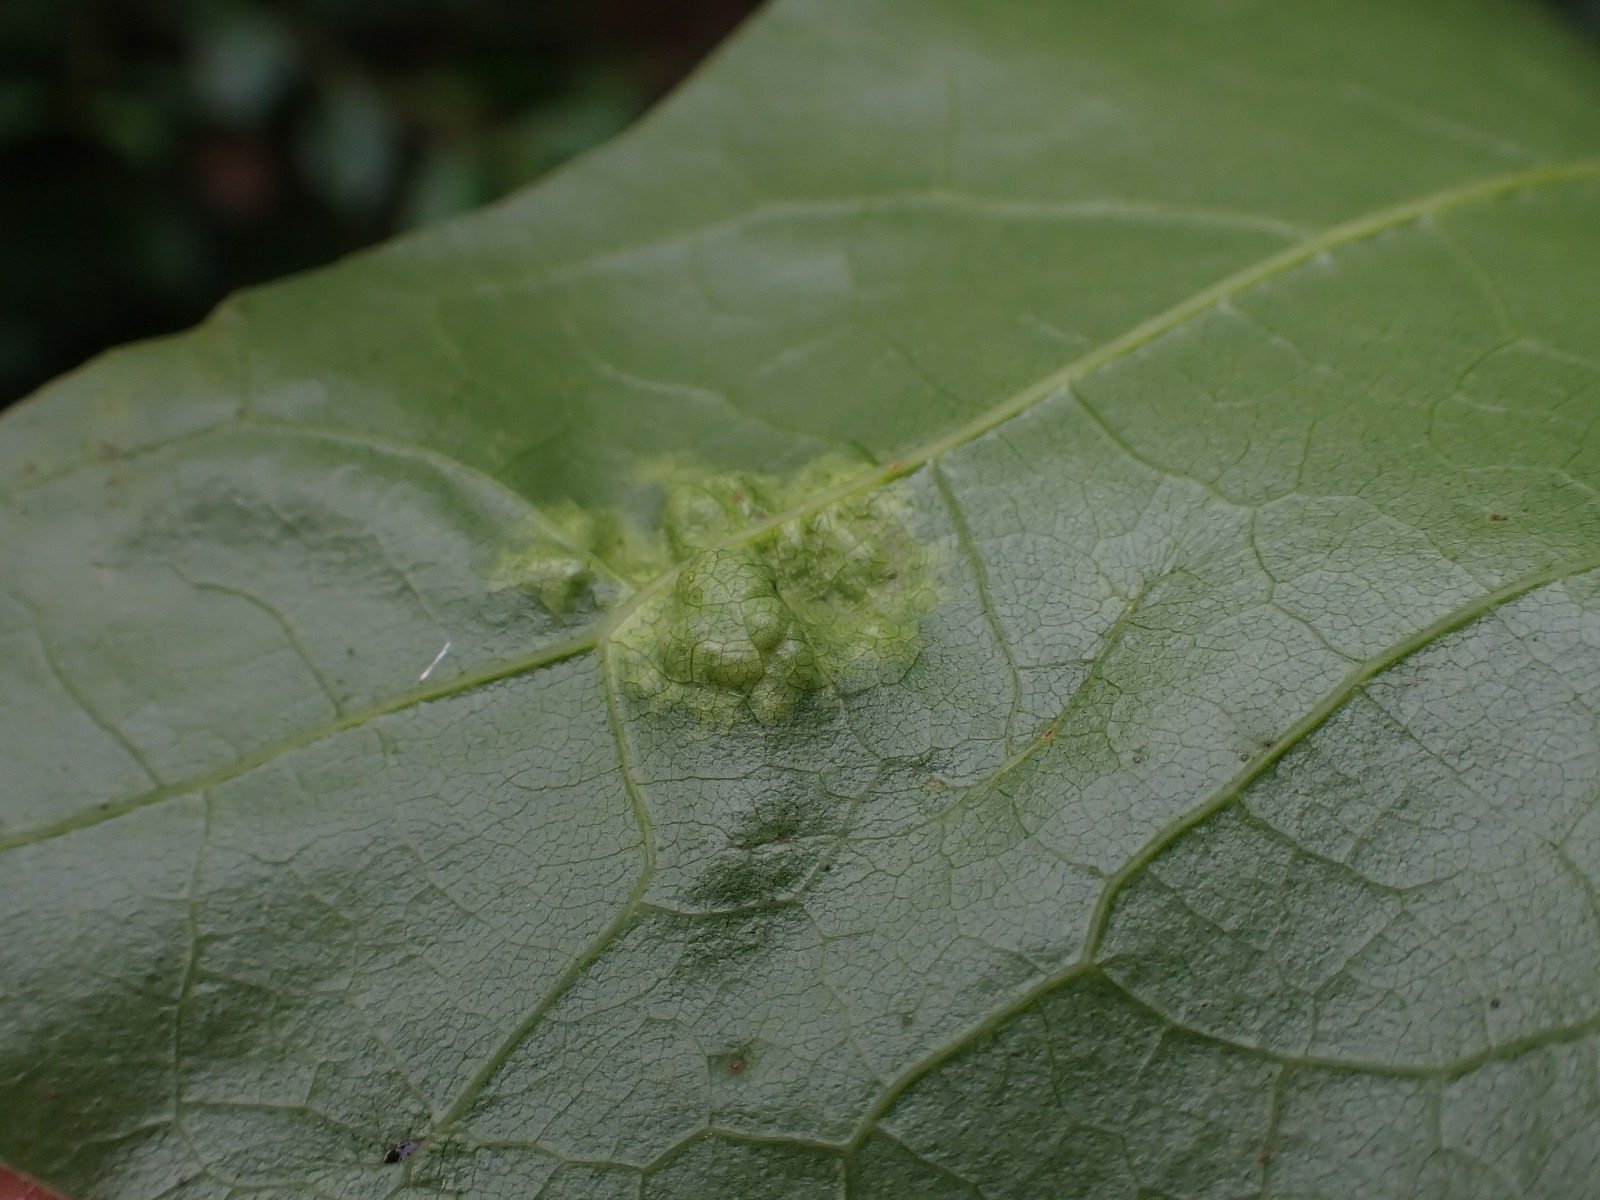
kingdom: Fungi
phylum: Ascomycota
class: Taphrinomycetes
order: Taphrinales
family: Taphrinaceae
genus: Taphrina
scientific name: Taphrina caerulescens
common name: Oak leaf blister
